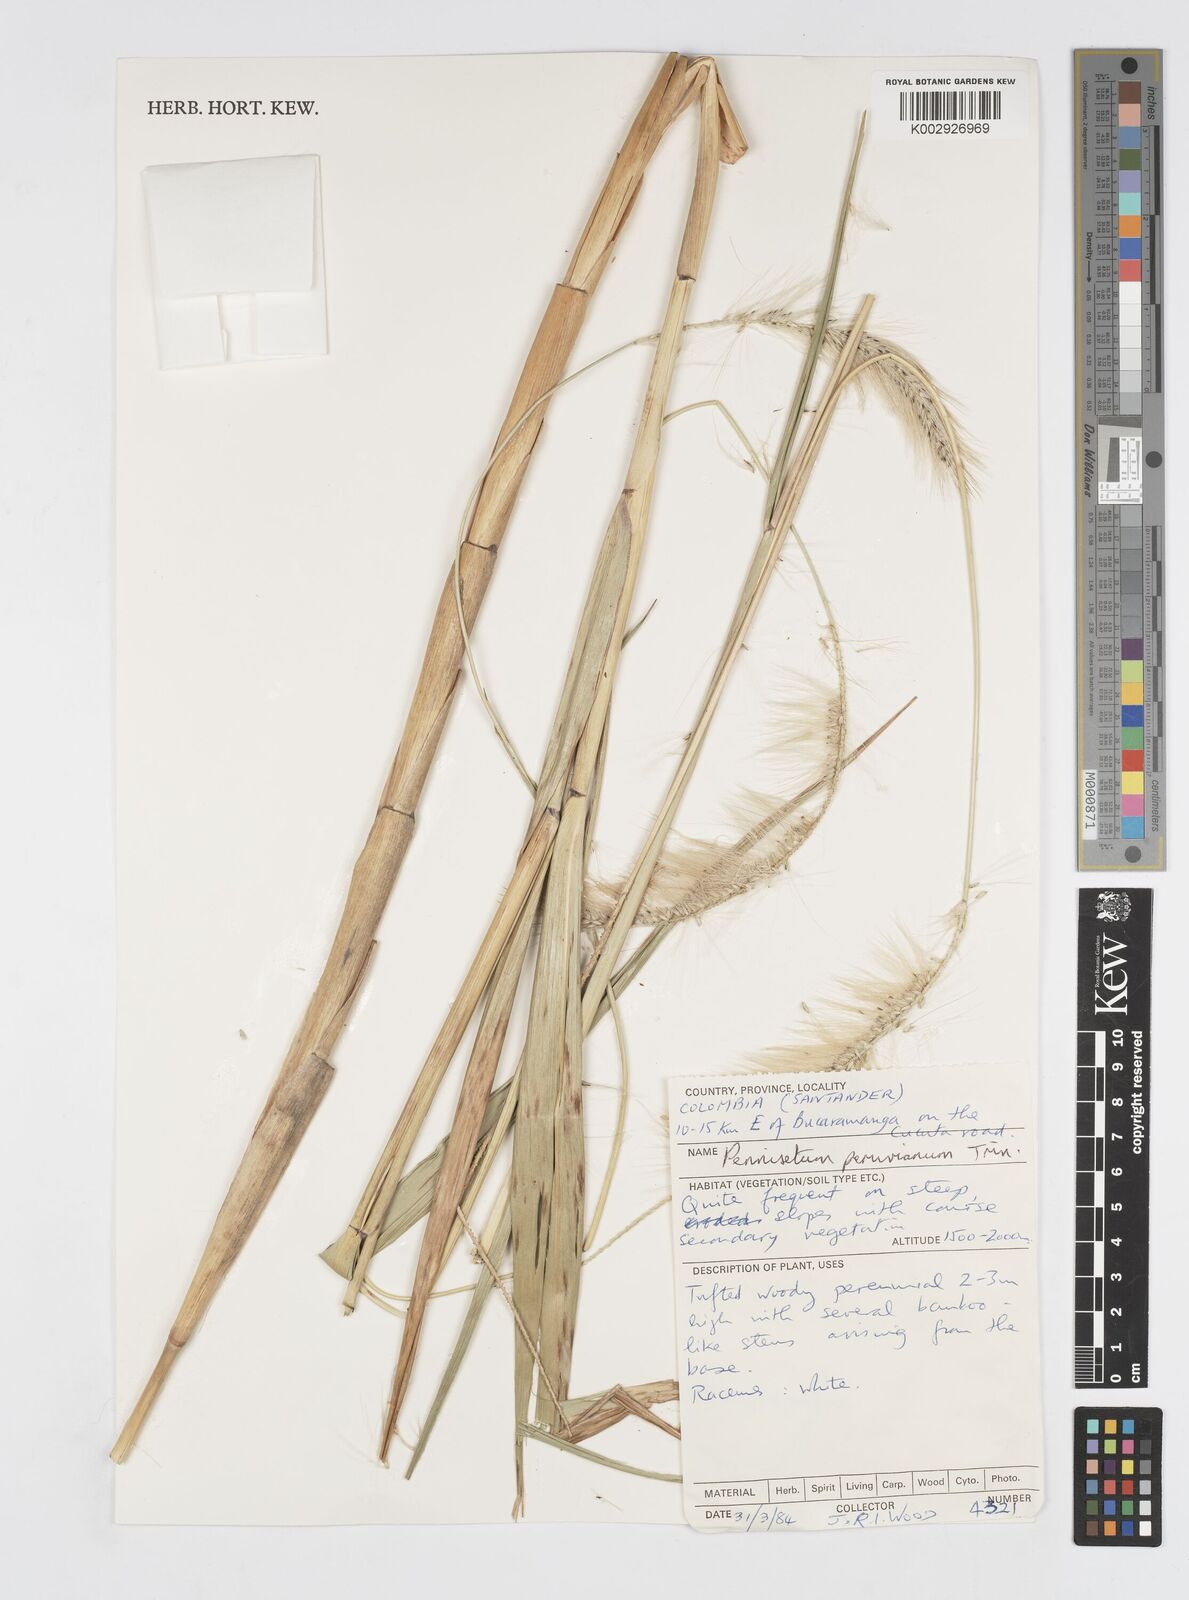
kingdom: Plantae
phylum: Tracheophyta
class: Liliopsida
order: Poales
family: Poaceae
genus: Cenchrus
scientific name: Cenchrus peruvianus
